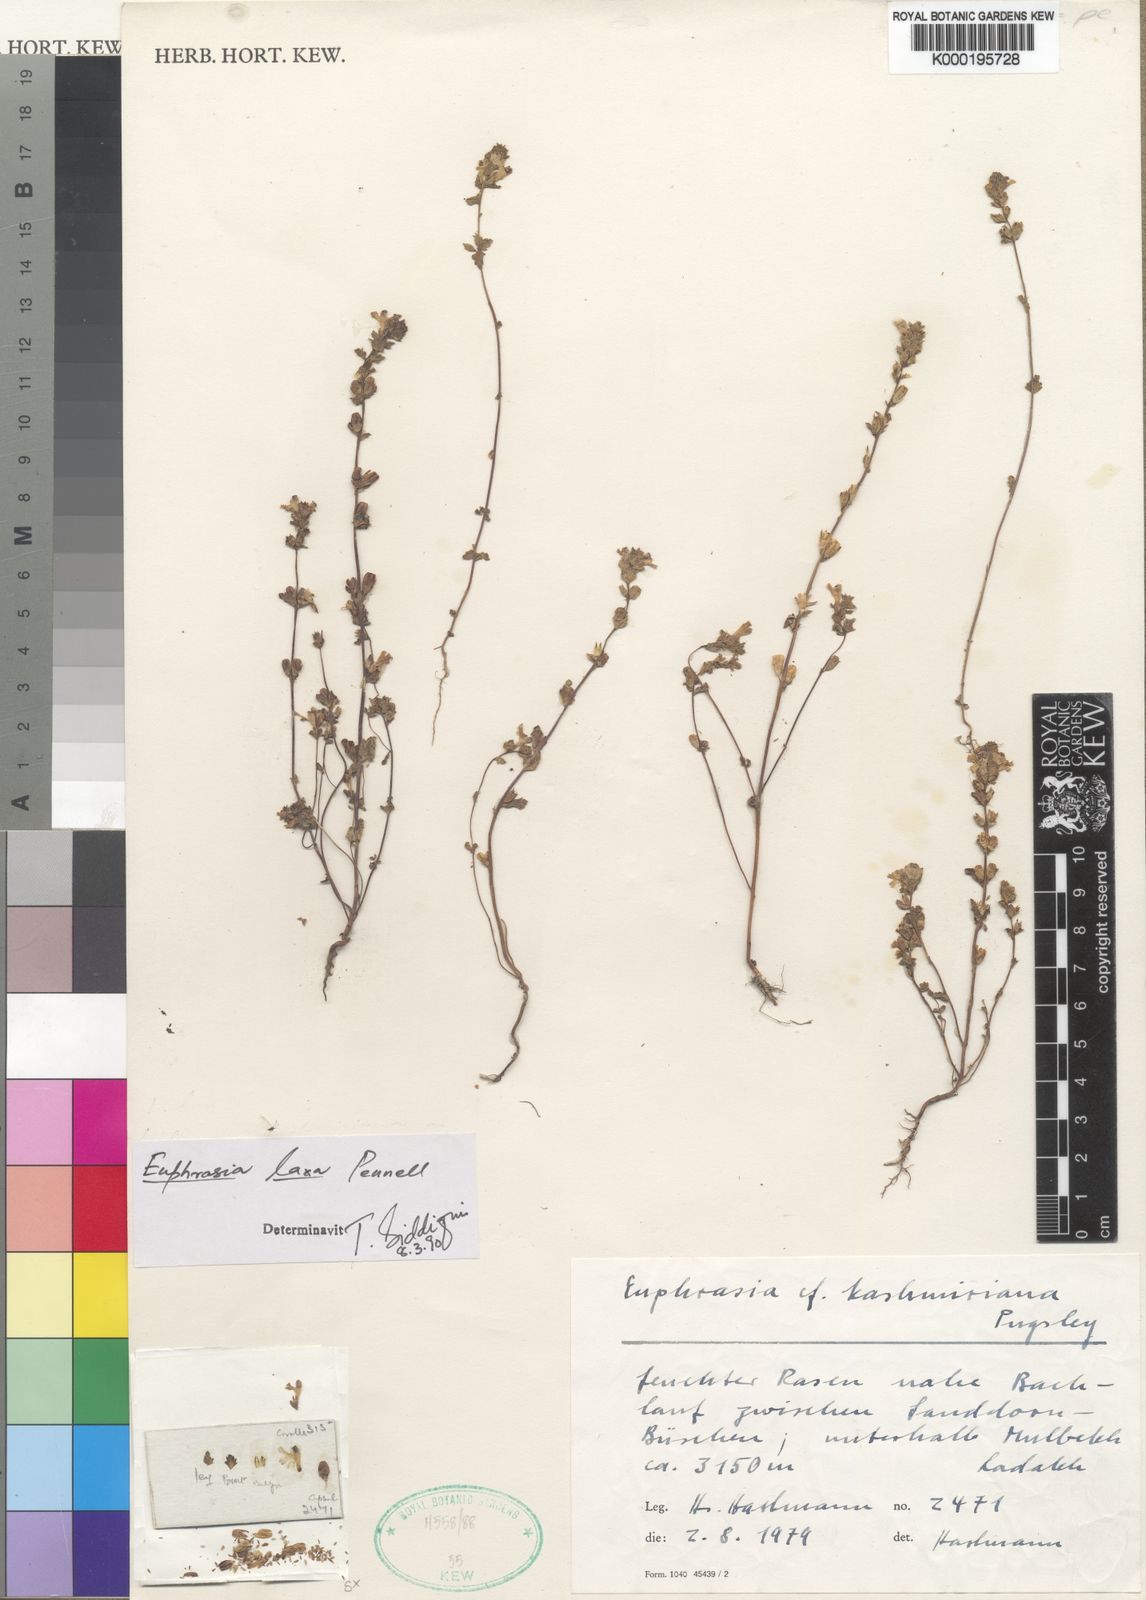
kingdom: Plantae
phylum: Tracheophyta
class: Magnoliopsida
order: Lamiales
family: Orobanchaceae
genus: Euphrasia
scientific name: Euphrasia laxa
